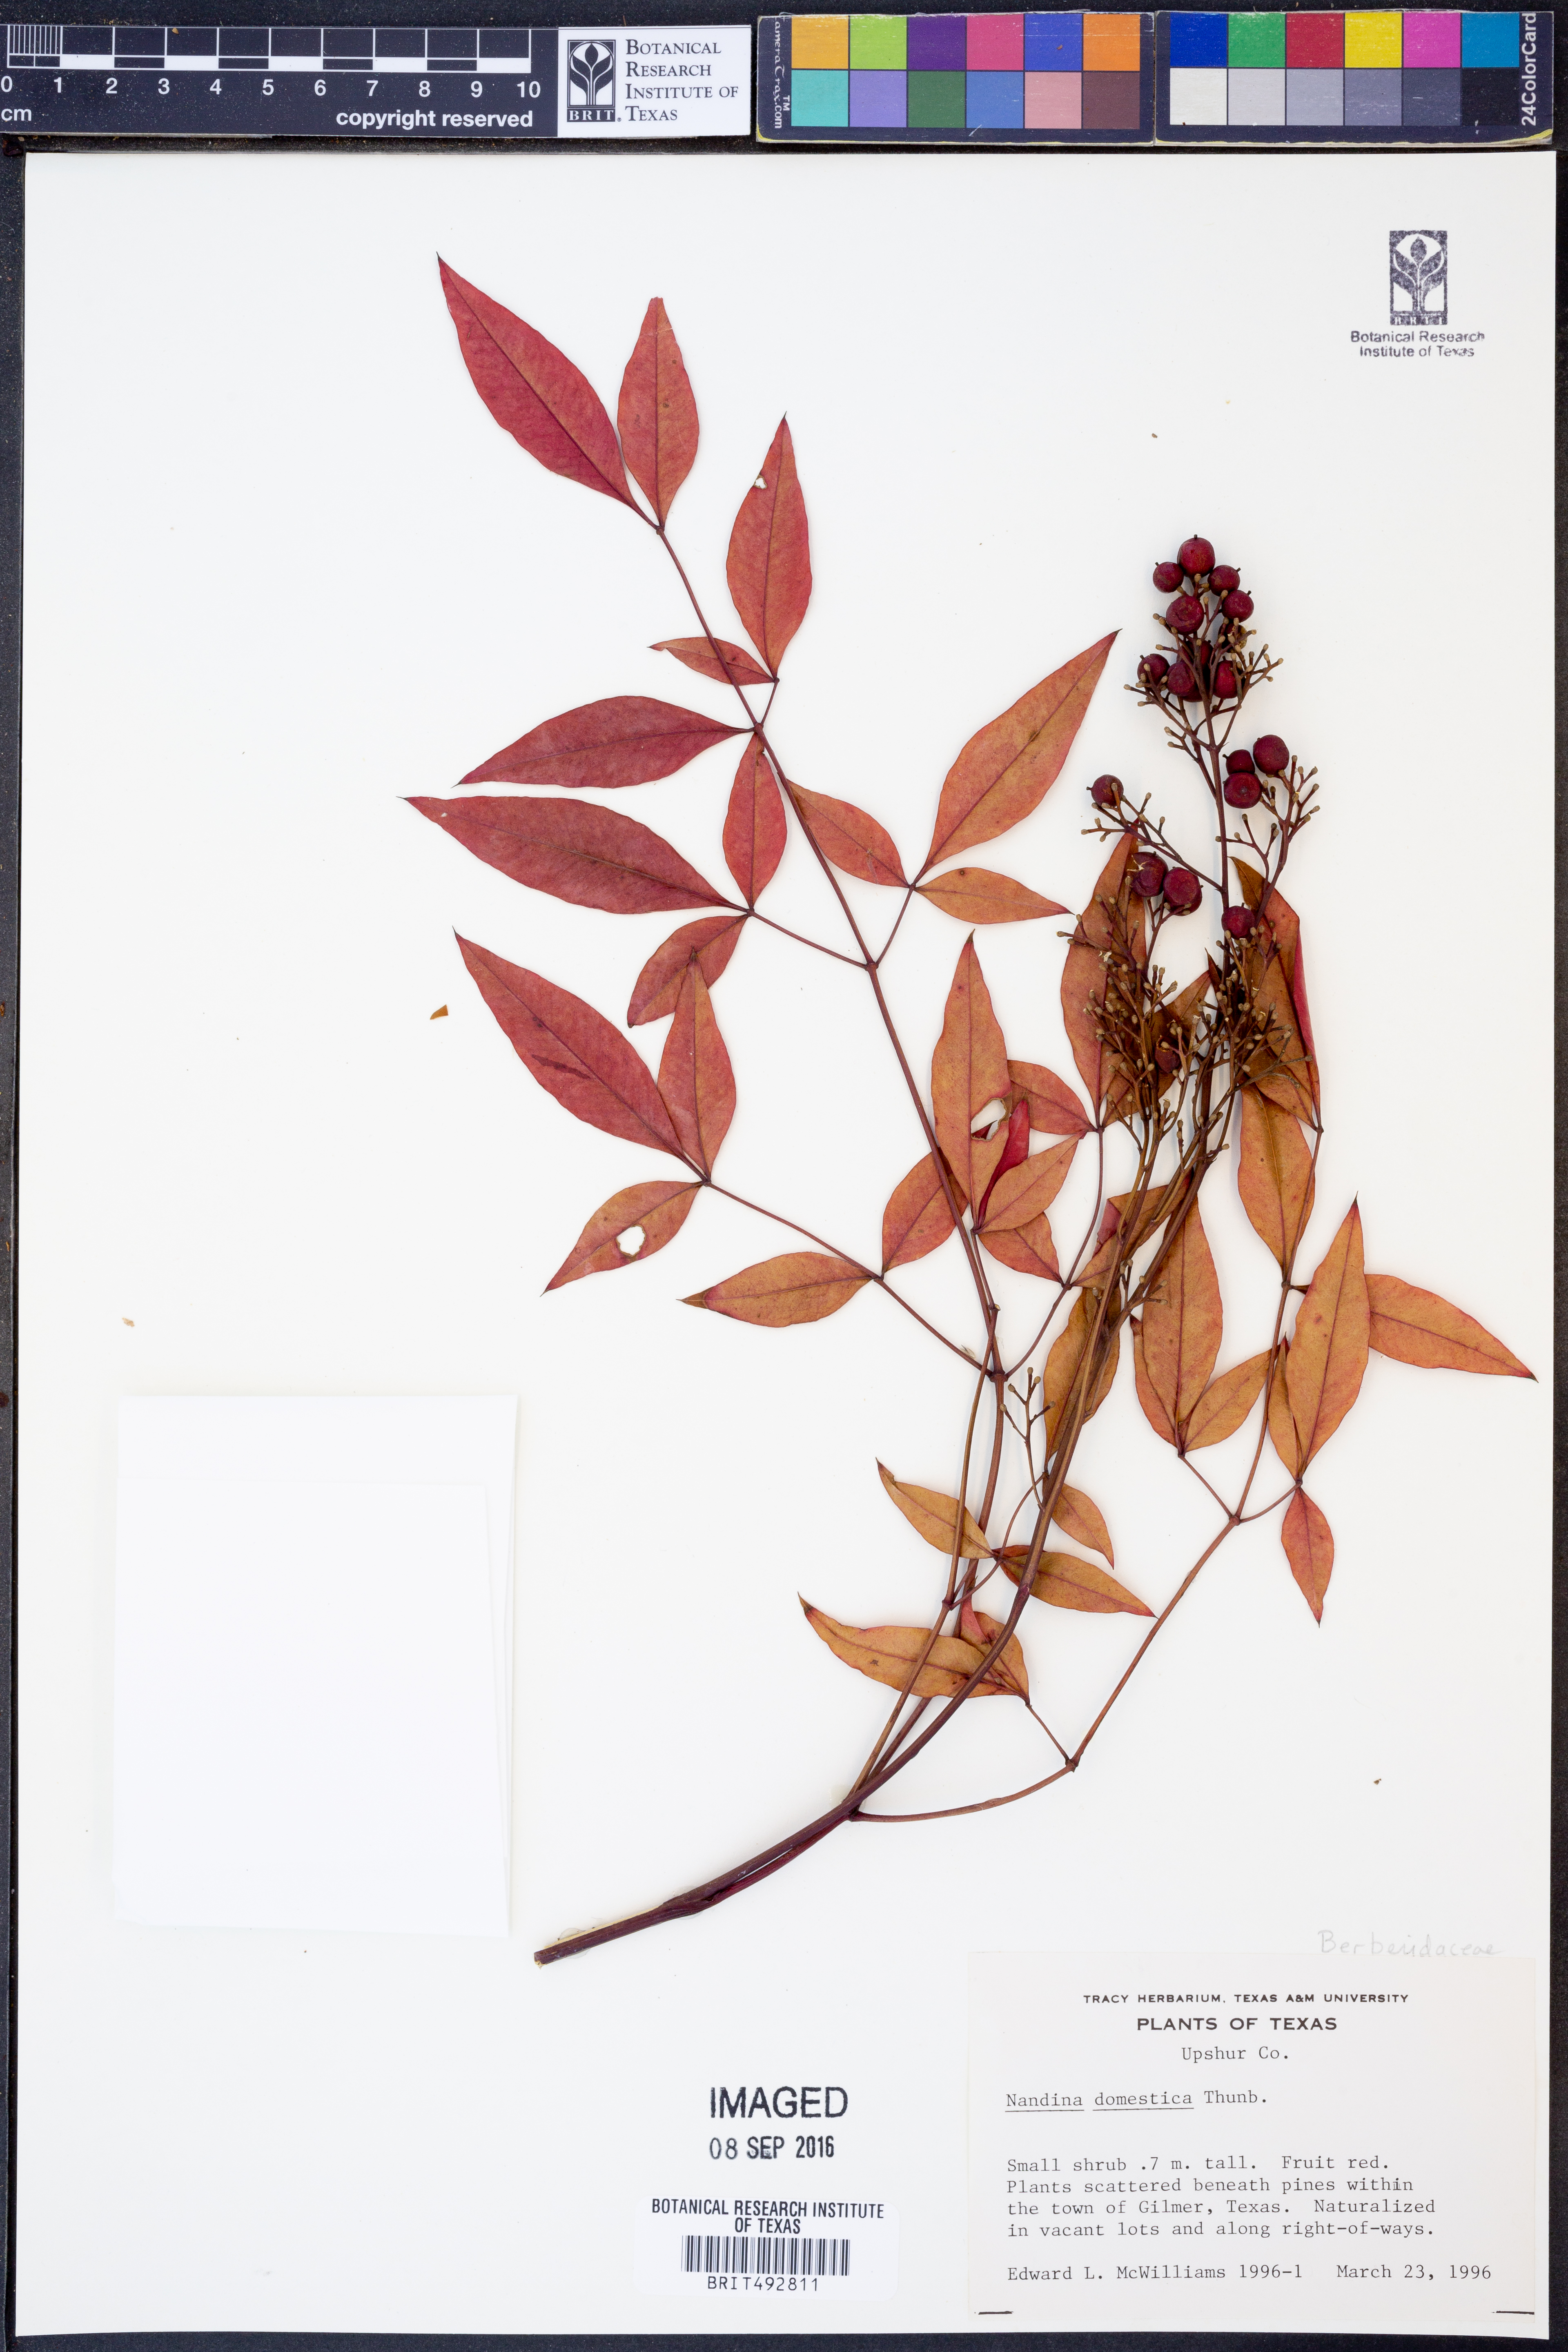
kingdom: Plantae
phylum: Tracheophyta
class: Magnoliopsida
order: Ranunculales
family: Berberidaceae
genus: Nandina
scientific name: Nandina domestica
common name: Sacred bamboo
